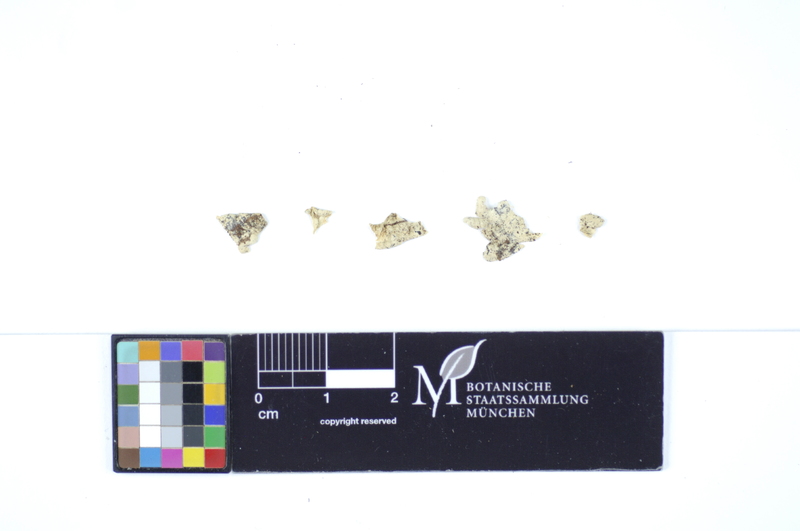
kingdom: Plantae
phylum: Tracheophyta
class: Pinopsida
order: Pinales
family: Pinaceae
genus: Pinus
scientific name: Pinus sylvestris
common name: Scots pine
